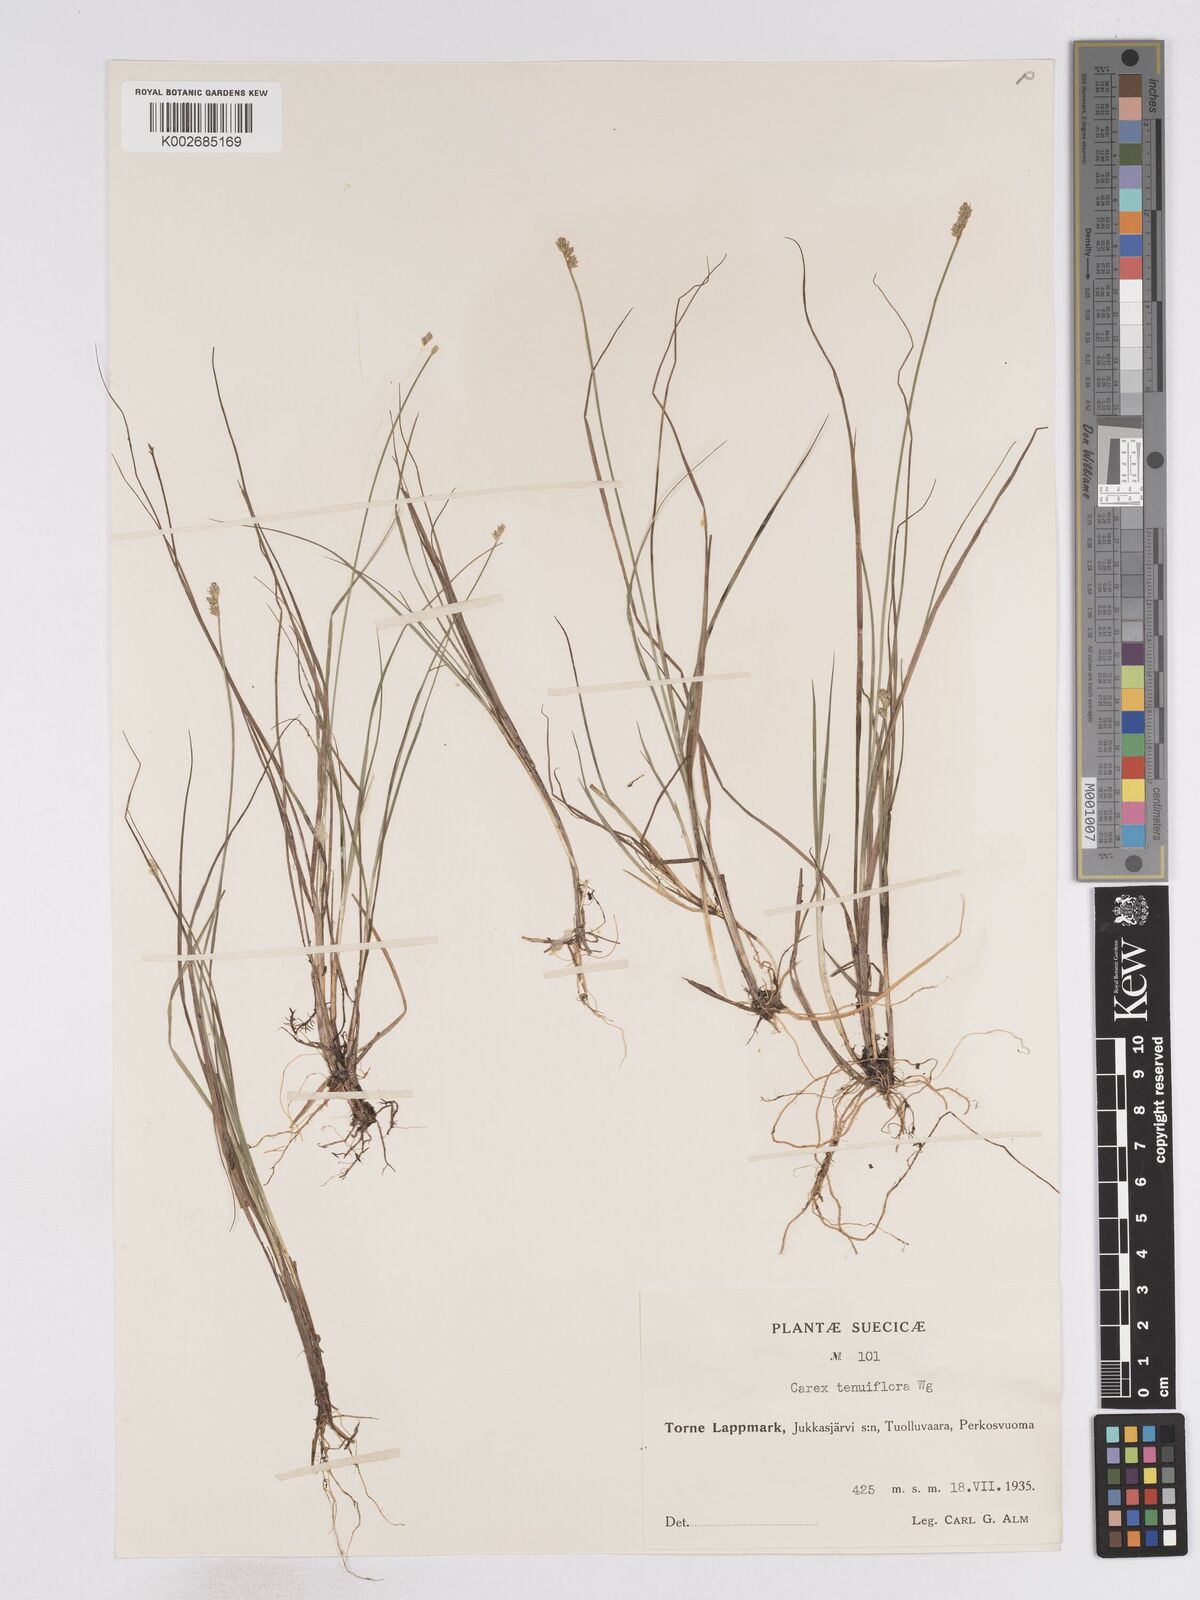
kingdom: Plantae
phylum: Tracheophyta
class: Liliopsida
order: Poales
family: Cyperaceae
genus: Carex
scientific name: Carex tenuiflora
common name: Sparse-flowered sedge
